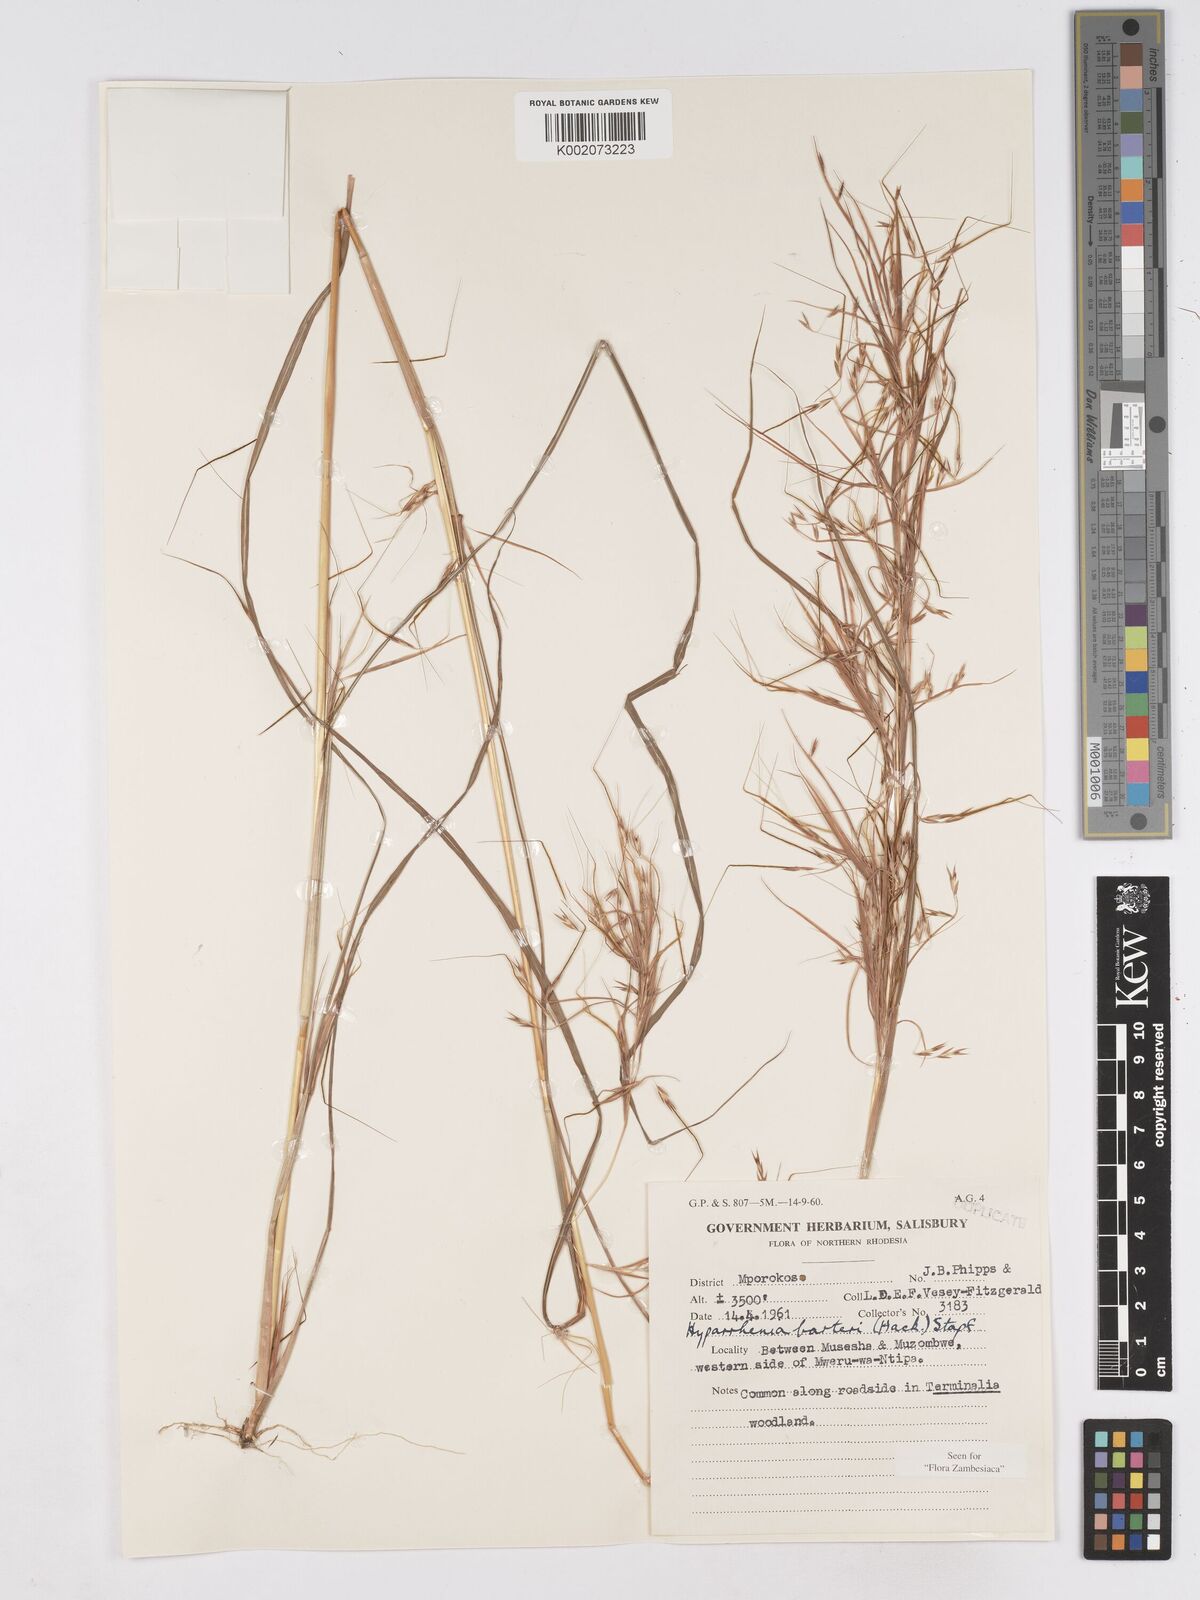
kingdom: Plantae
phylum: Tracheophyta
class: Liliopsida
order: Poales
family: Poaceae
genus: Hyparrhenia
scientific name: Hyparrhenia barteri
